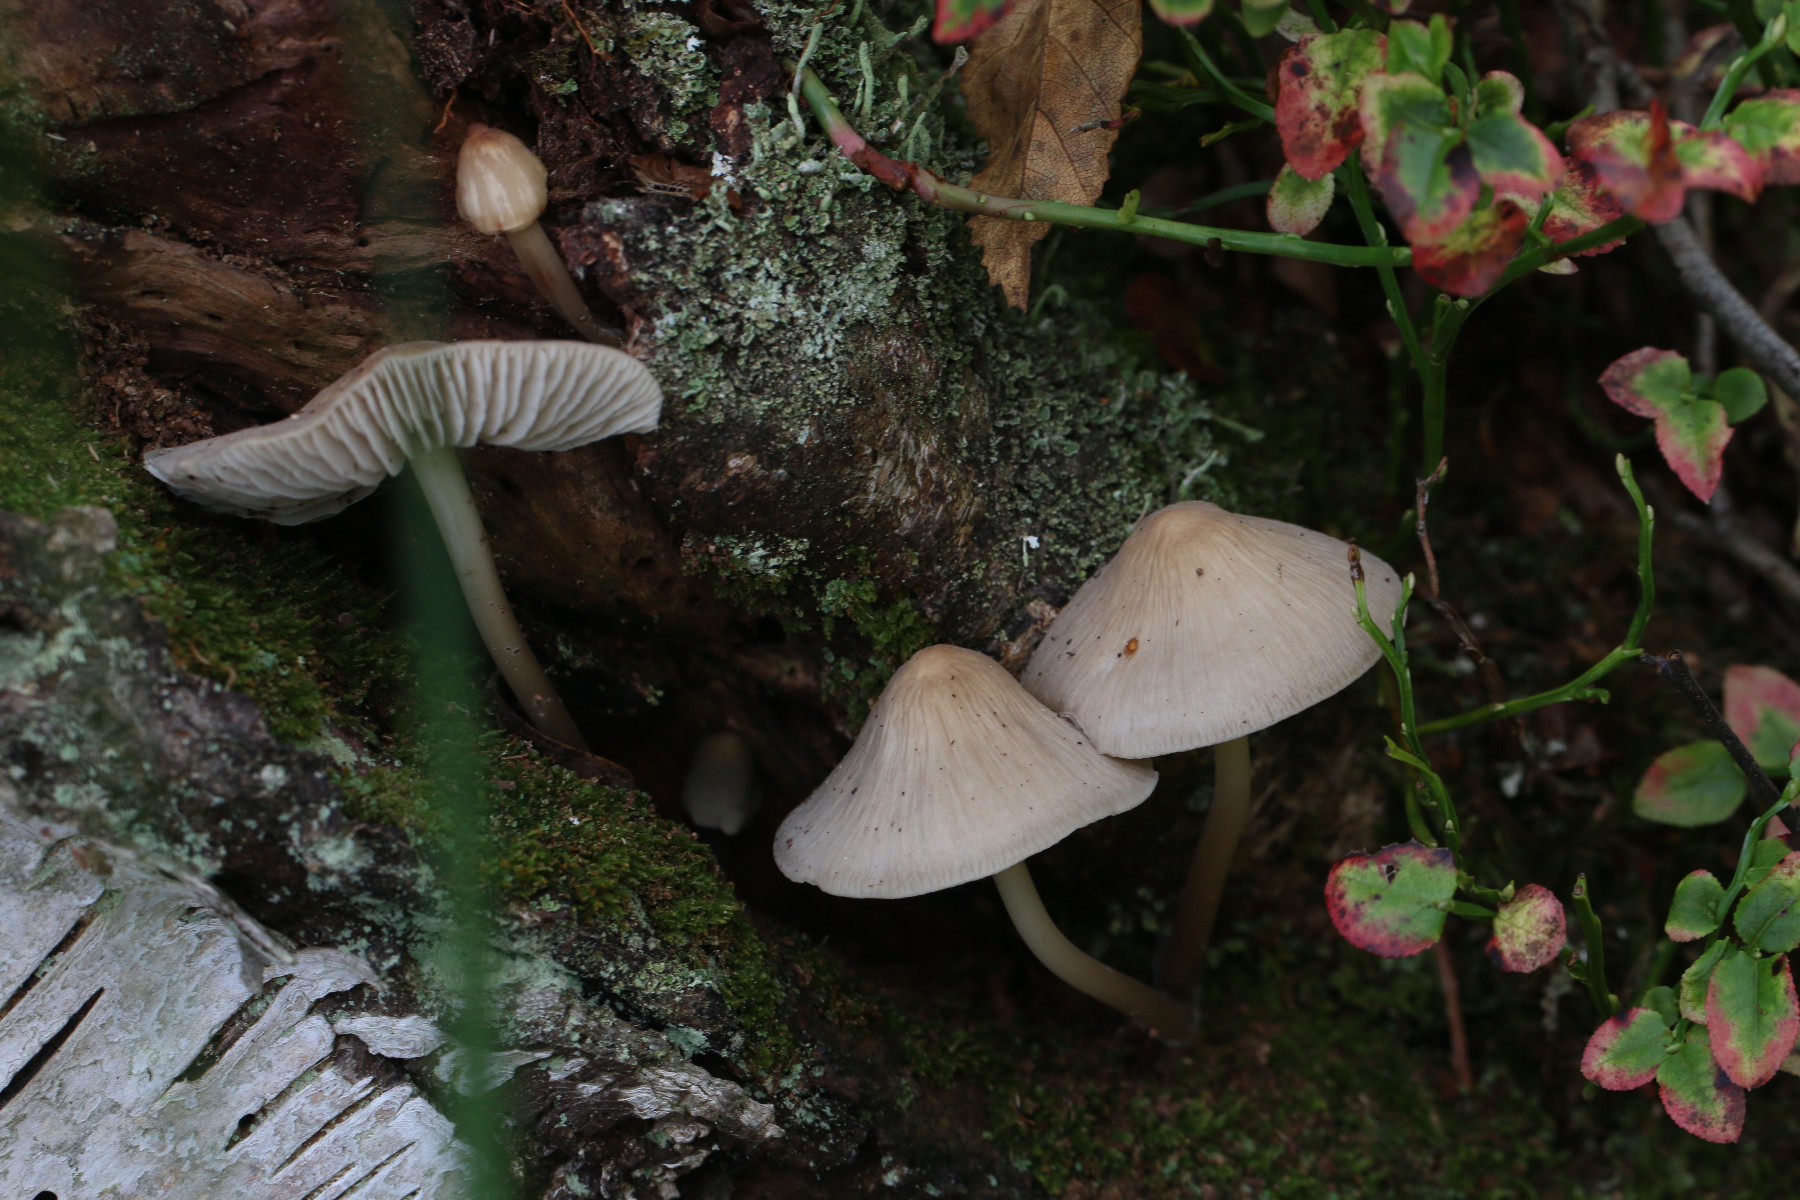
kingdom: Fungi
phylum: Basidiomycota
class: Agaricomycetes
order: Agaricales
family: Mycenaceae
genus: Mycena
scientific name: Mycena galericulata
